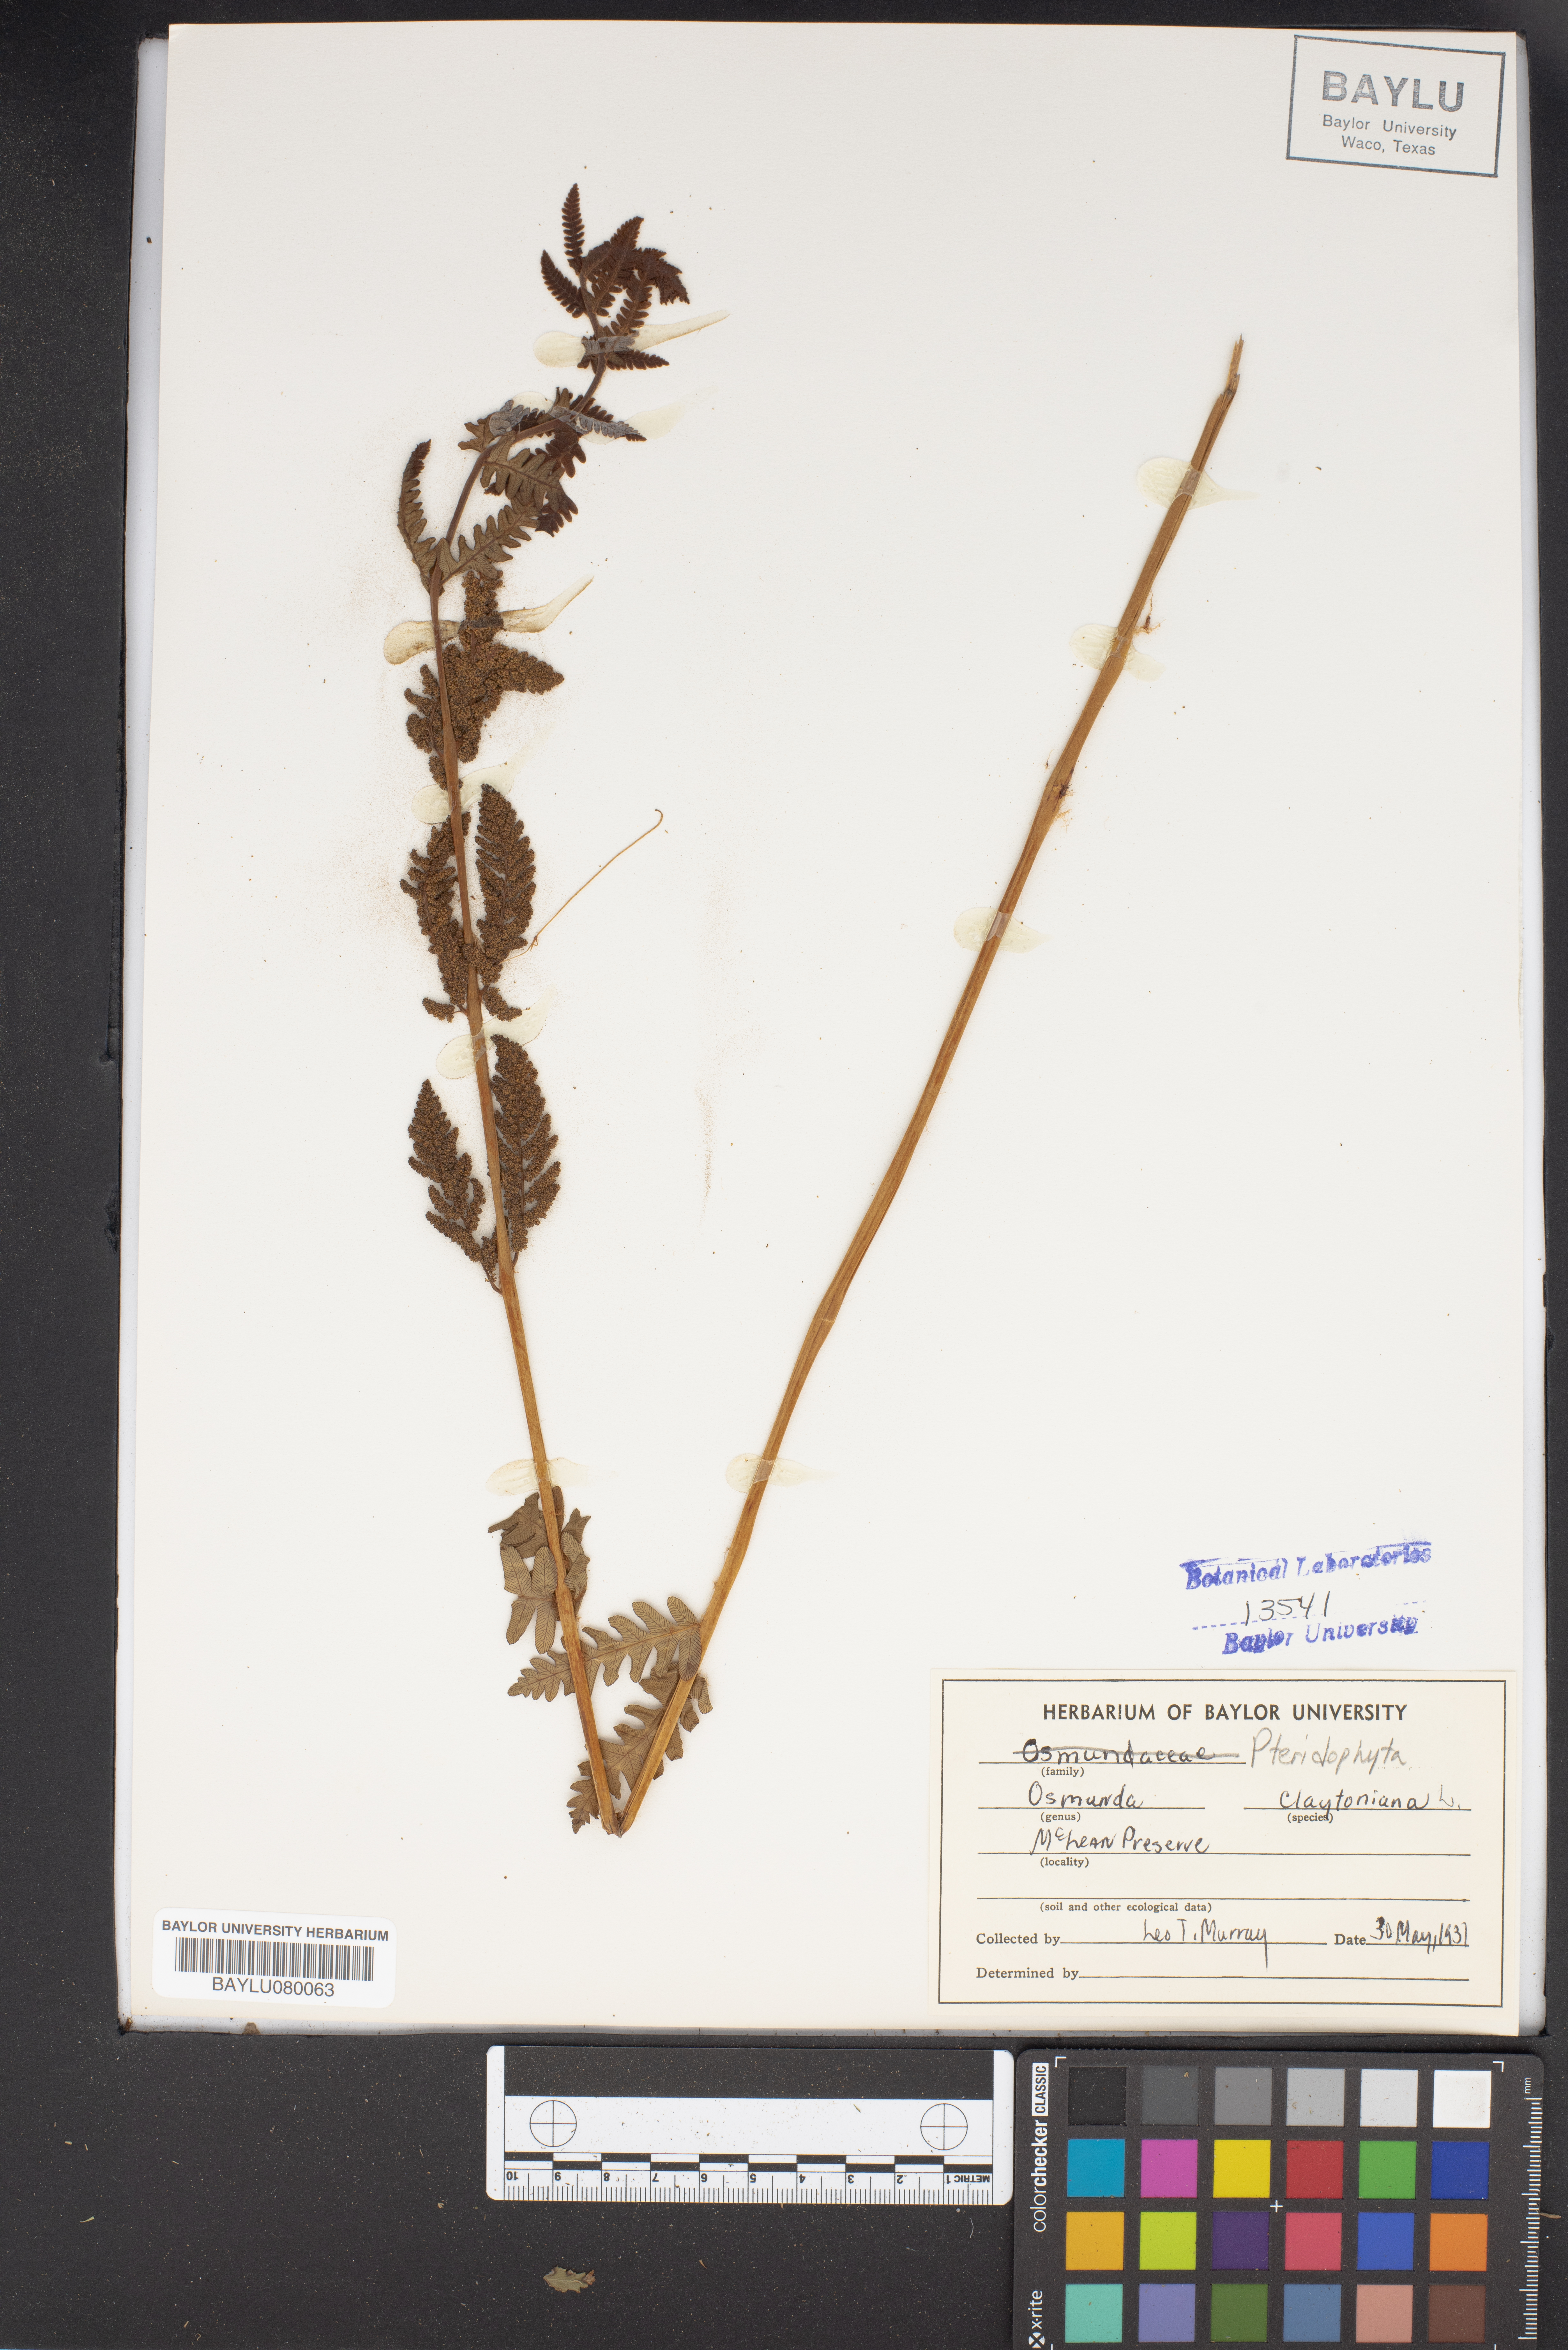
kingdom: Plantae
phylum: Tracheophyta
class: Polypodiopsida
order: Osmundales
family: Osmundaceae
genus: Claytosmunda
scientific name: Claytosmunda claytoniana
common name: Clayton's fern
